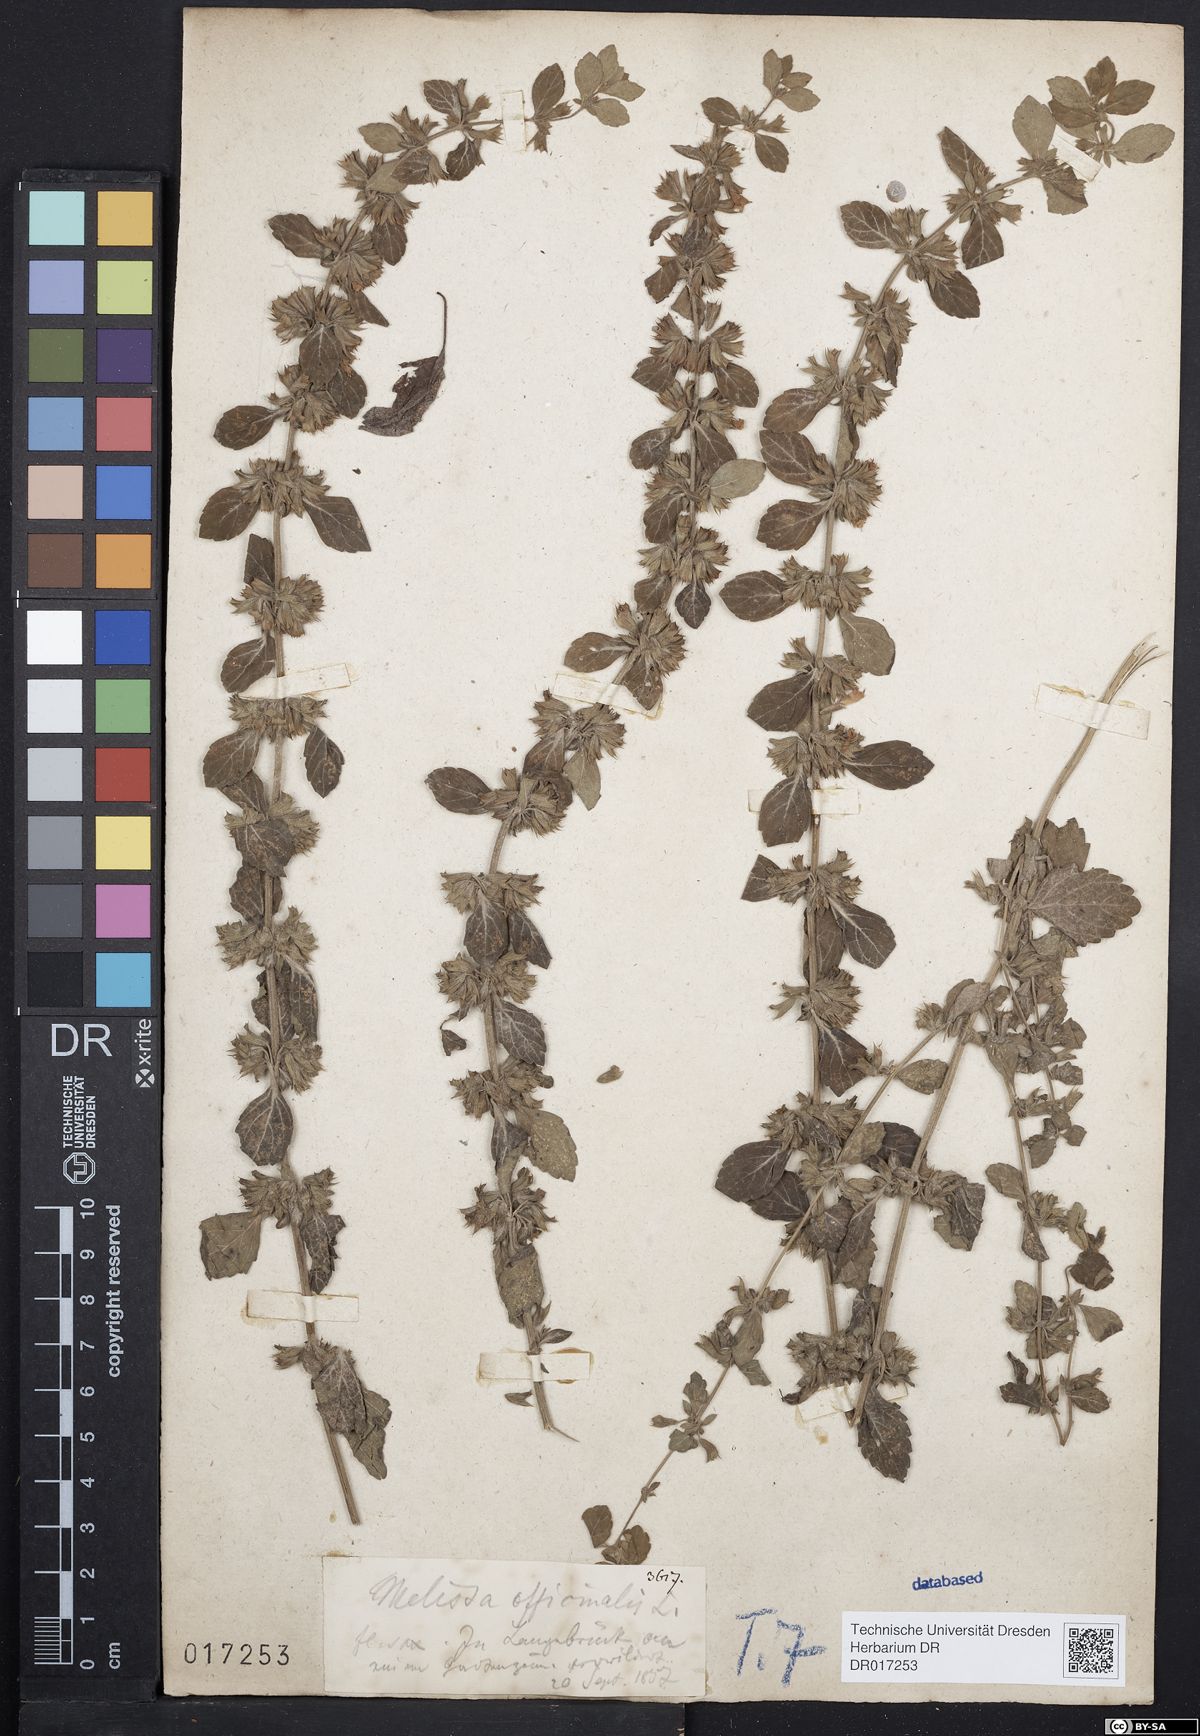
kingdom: Plantae
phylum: Tracheophyta
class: Magnoliopsida
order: Lamiales
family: Lamiaceae
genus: Melissa
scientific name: Melissa officinalis
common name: Balm
